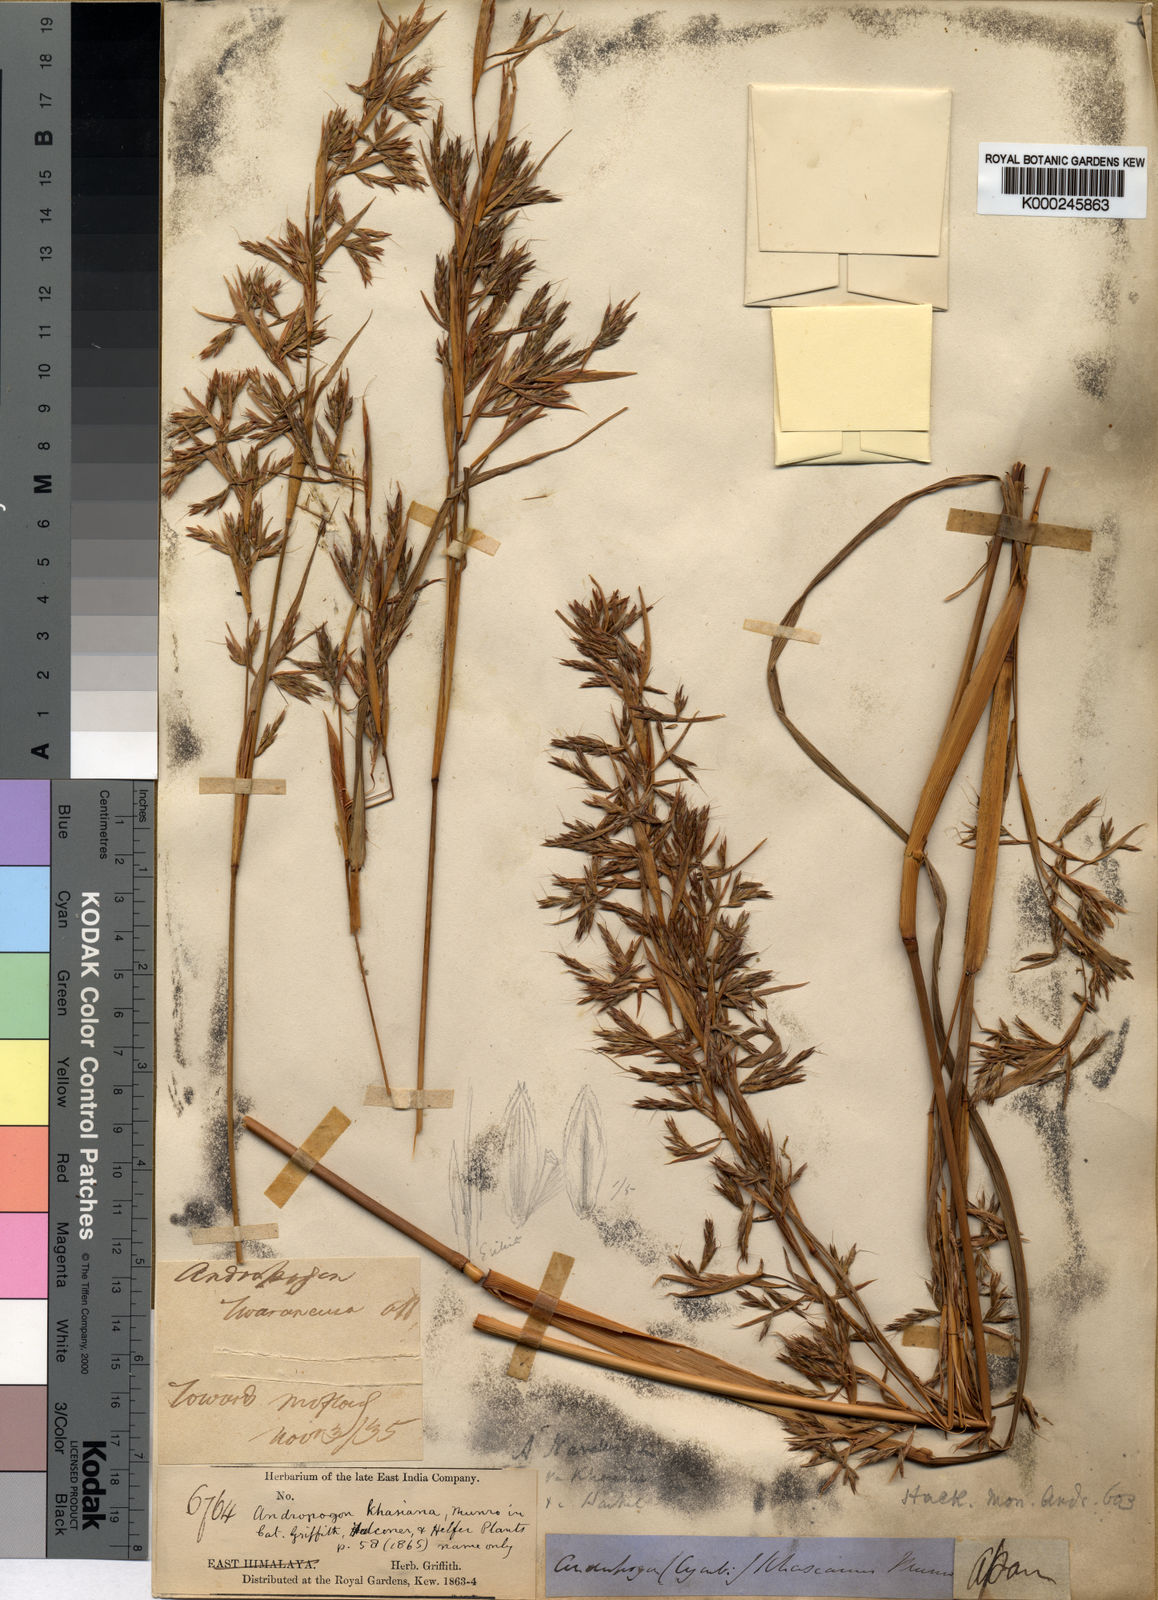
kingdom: Plantae
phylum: Tracheophyta
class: Liliopsida
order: Poales
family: Poaceae
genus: Cymbopogon
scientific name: Cymbopogon khasianus
